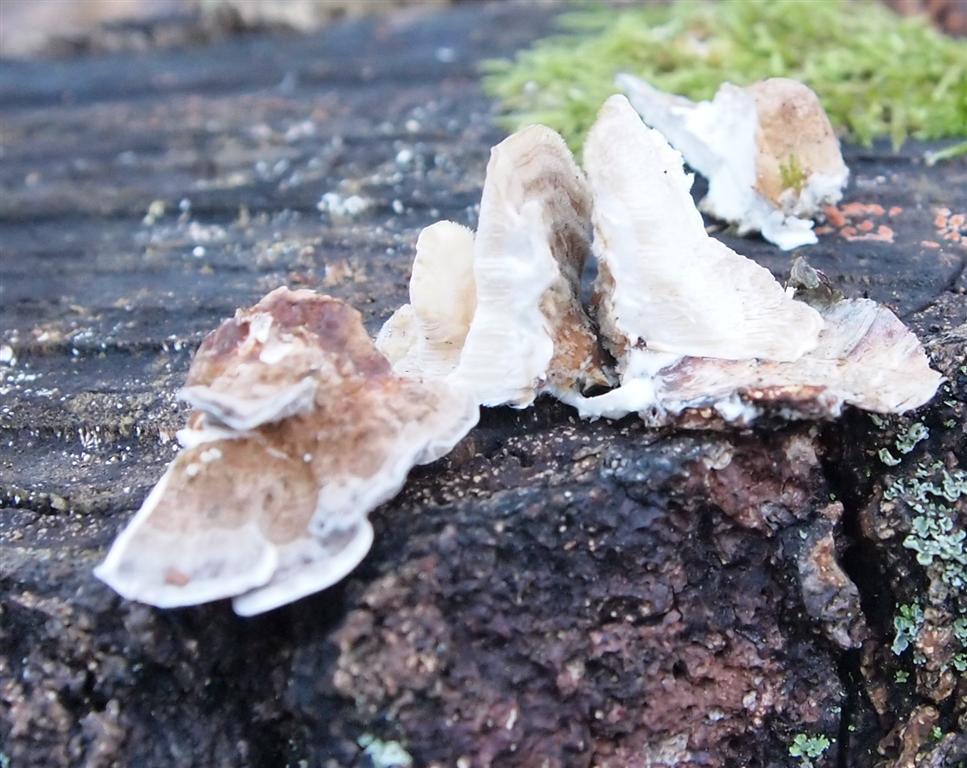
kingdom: Fungi
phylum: Basidiomycota
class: Agaricomycetes
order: Polyporales
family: Phanerochaetaceae
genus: Bjerkandera
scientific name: Bjerkandera fumosa
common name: grågul sodporesvamp
